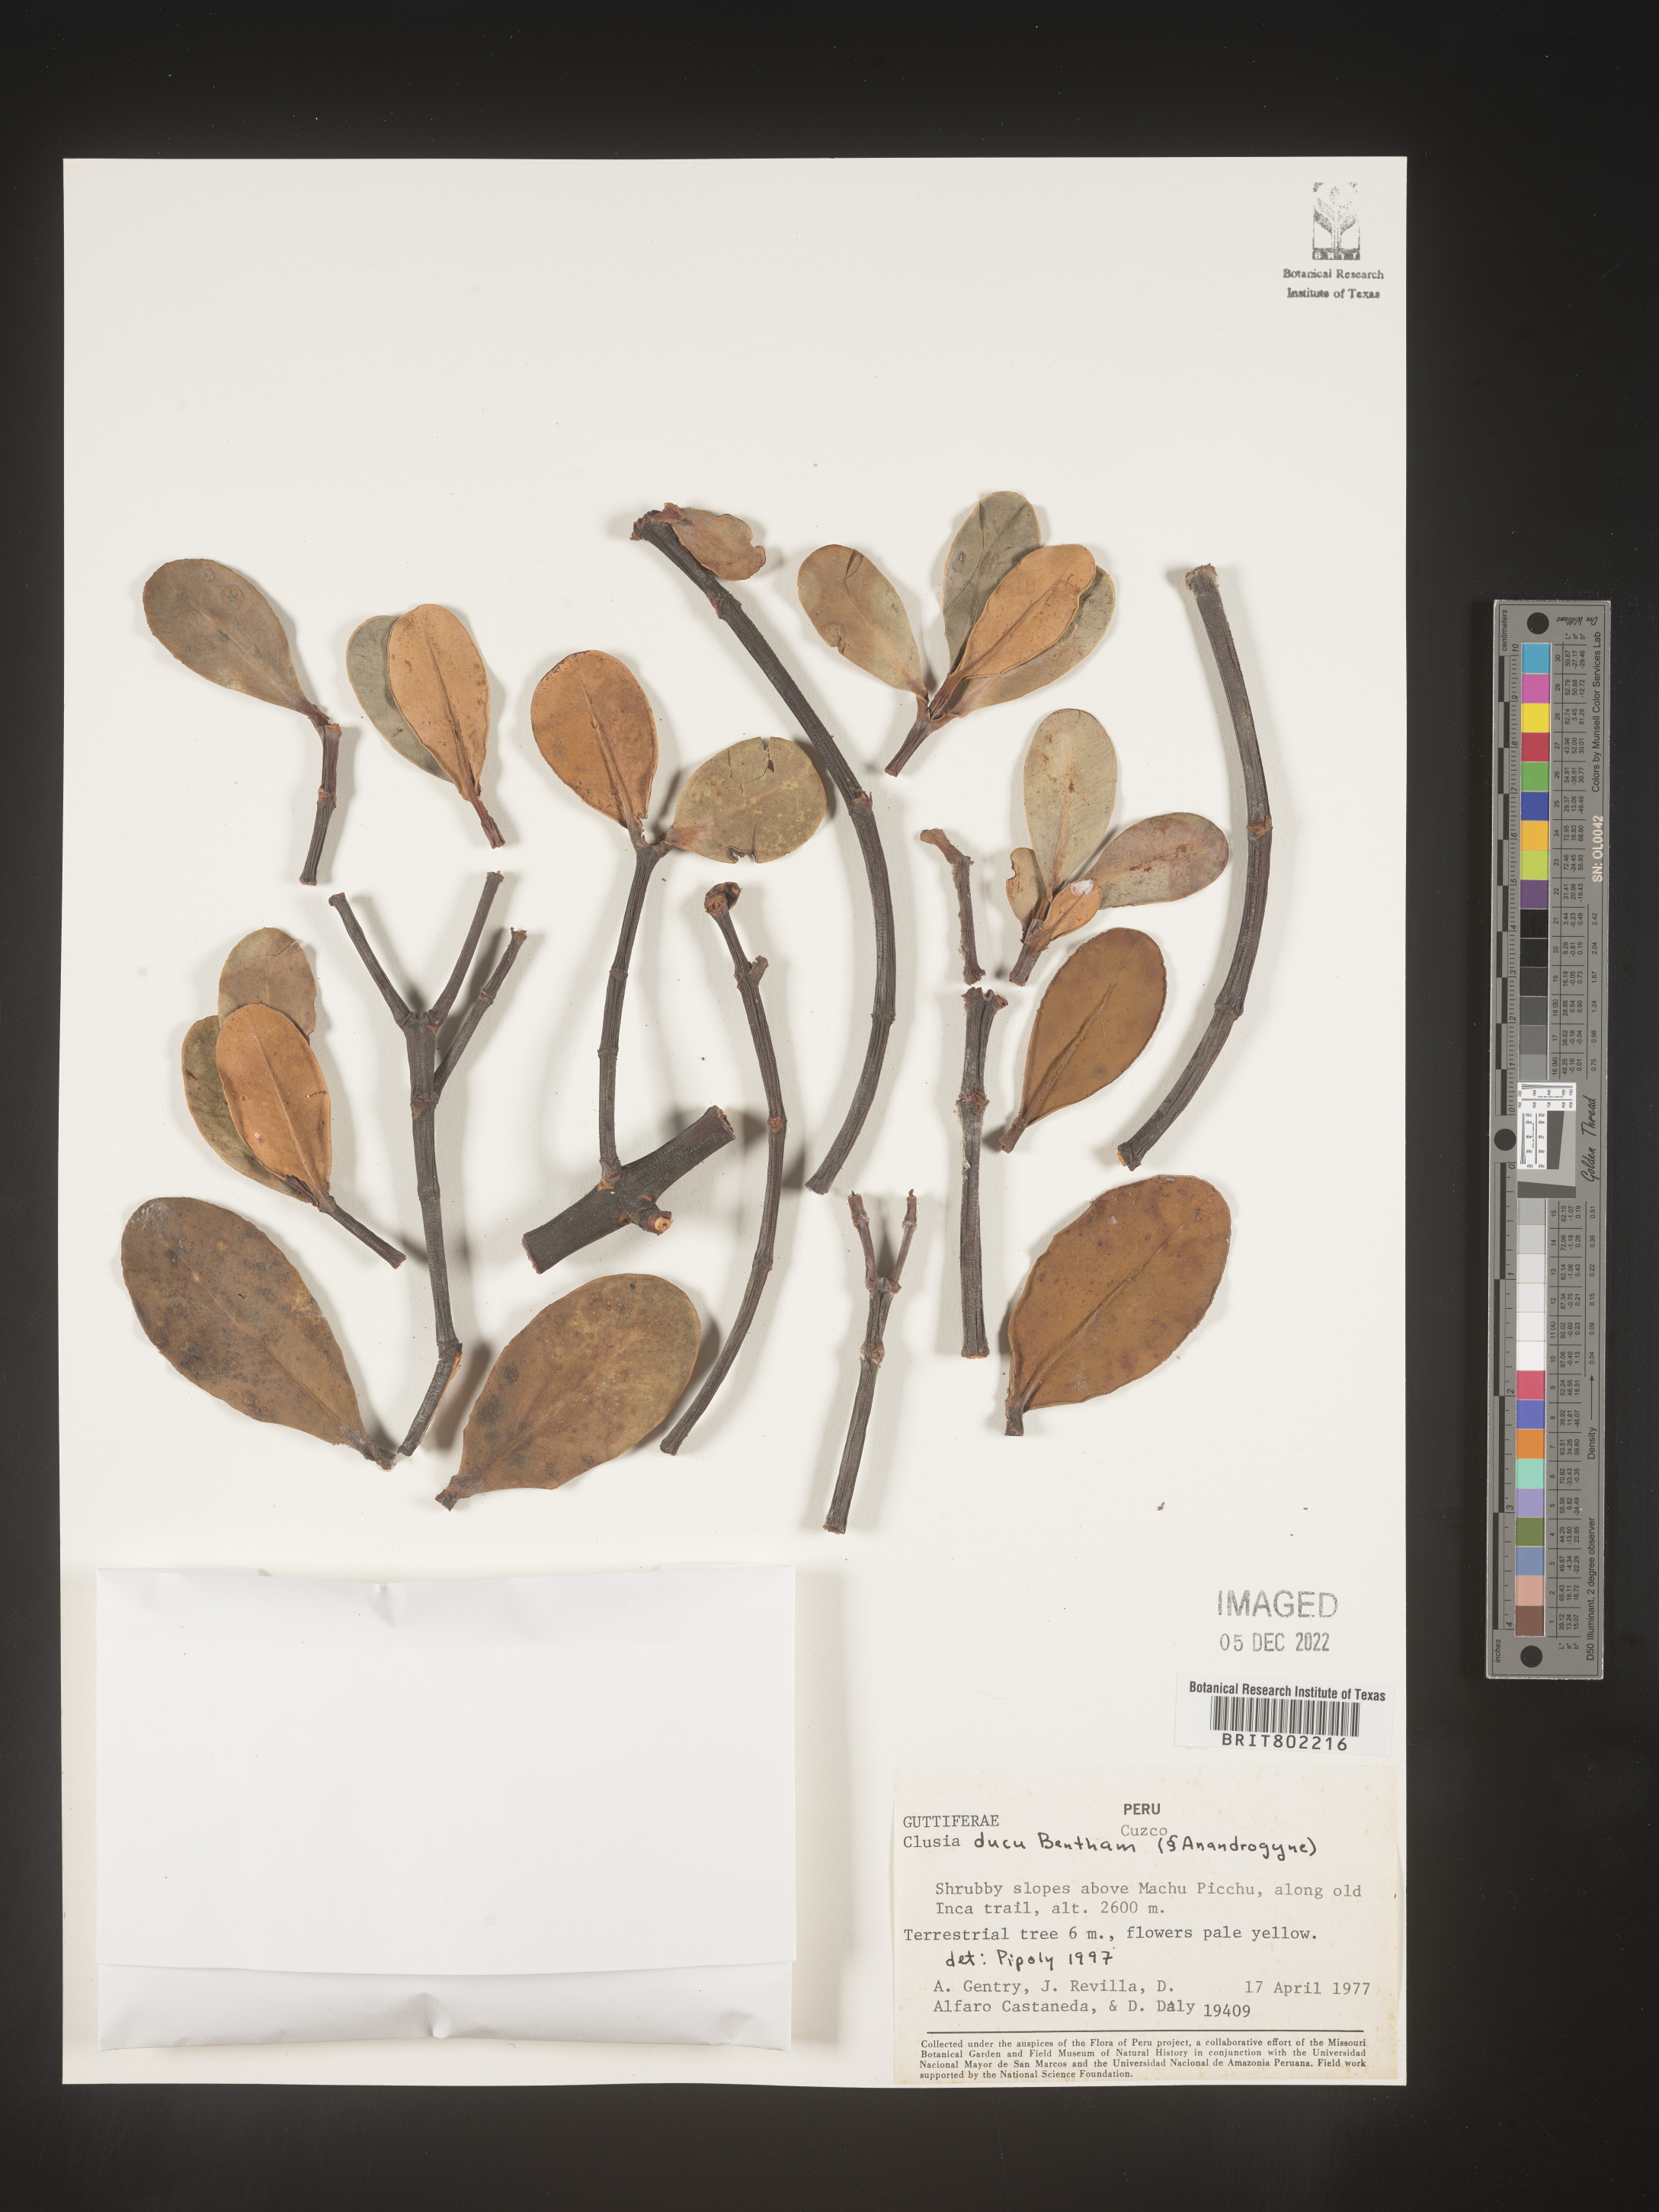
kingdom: Plantae
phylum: Tracheophyta
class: Magnoliopsida
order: Malpighiales
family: Clusiaceae
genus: Clusia
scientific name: Clusia ducu
